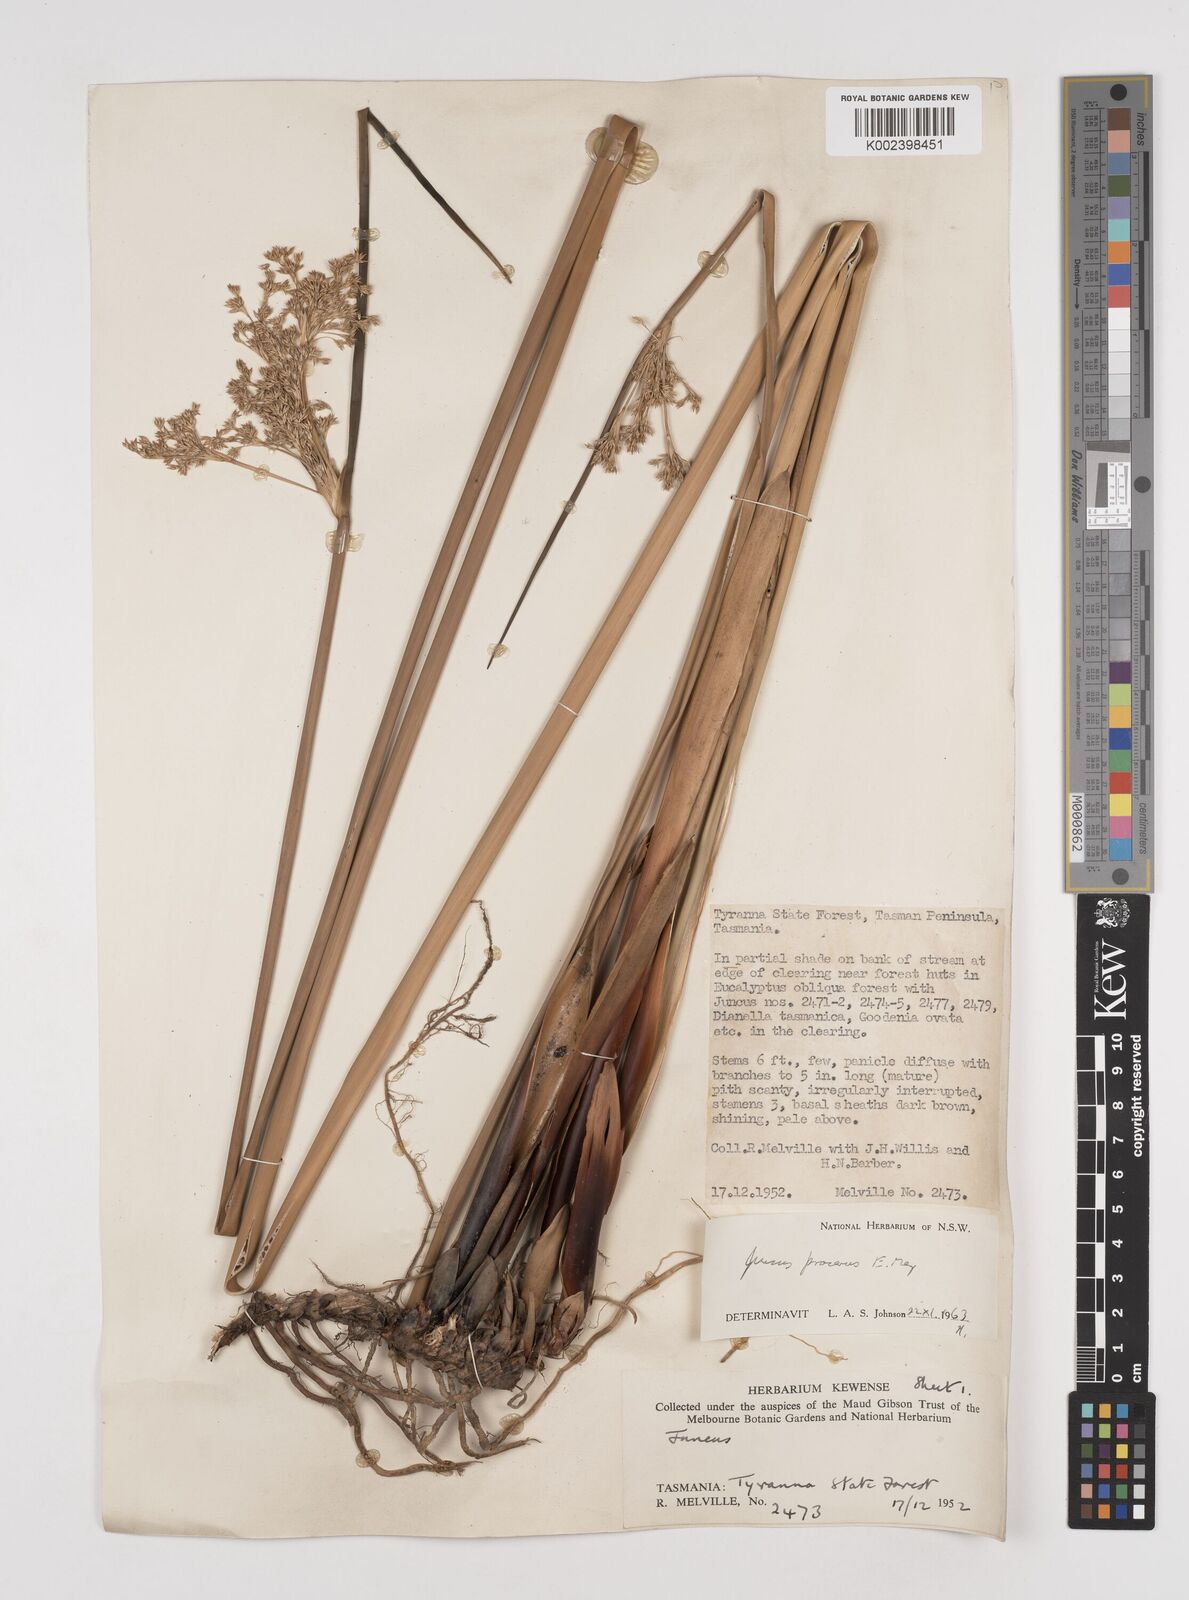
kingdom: Plantae
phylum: Tracheophyta
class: Liliopsida
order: Poales
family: Juncaceae
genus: Juncus
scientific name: Juncus procerus
